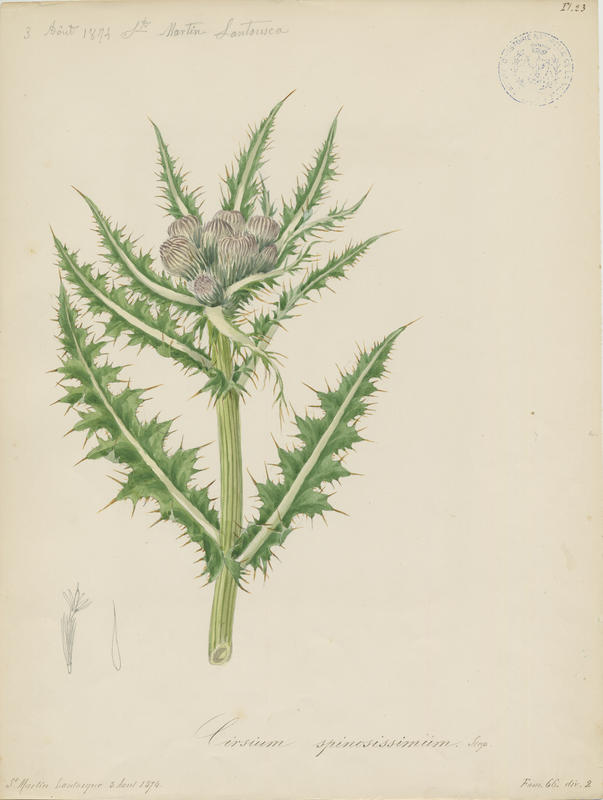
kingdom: Plantae
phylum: Tracheophyta
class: Magnoliopsida
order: Asterales
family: Asteraceae
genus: Cirsium
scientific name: Cirsium spinosissimum
